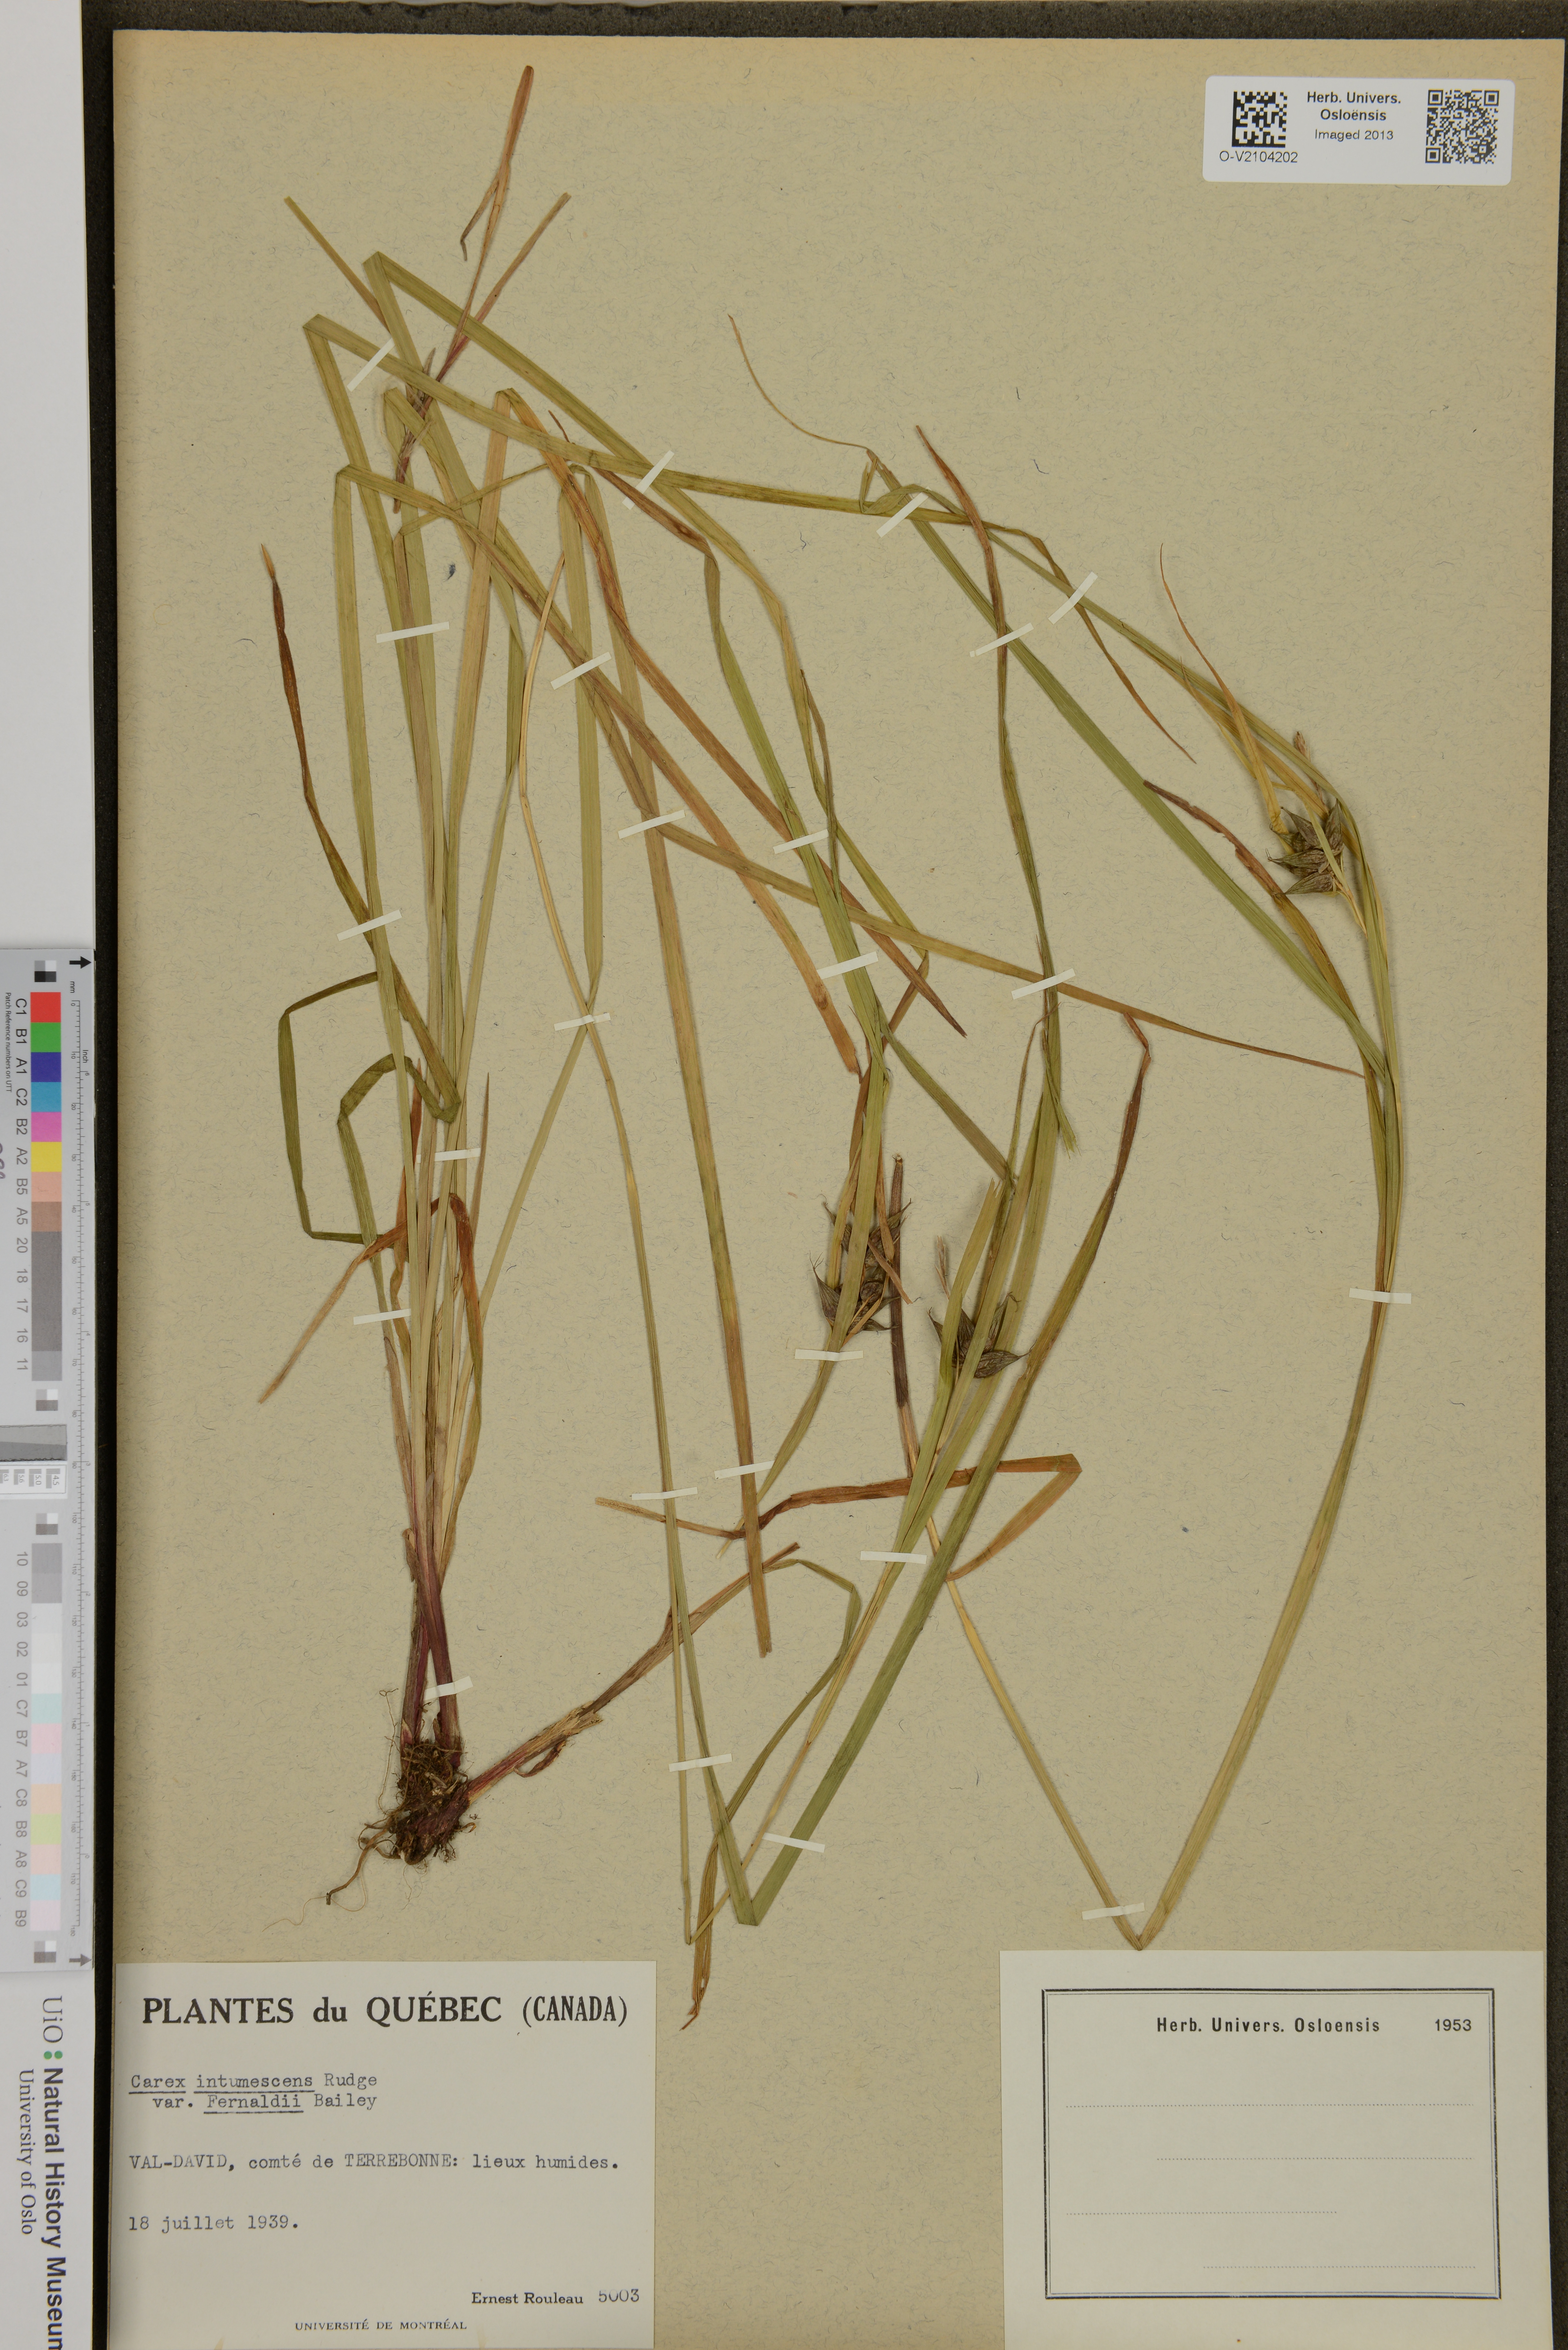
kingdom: Plantae
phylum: Tracheophyta
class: Liliopsida
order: Poales
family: Cyperaceae
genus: Carex
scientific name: Carex intumescens
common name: Greater bladder sedge
